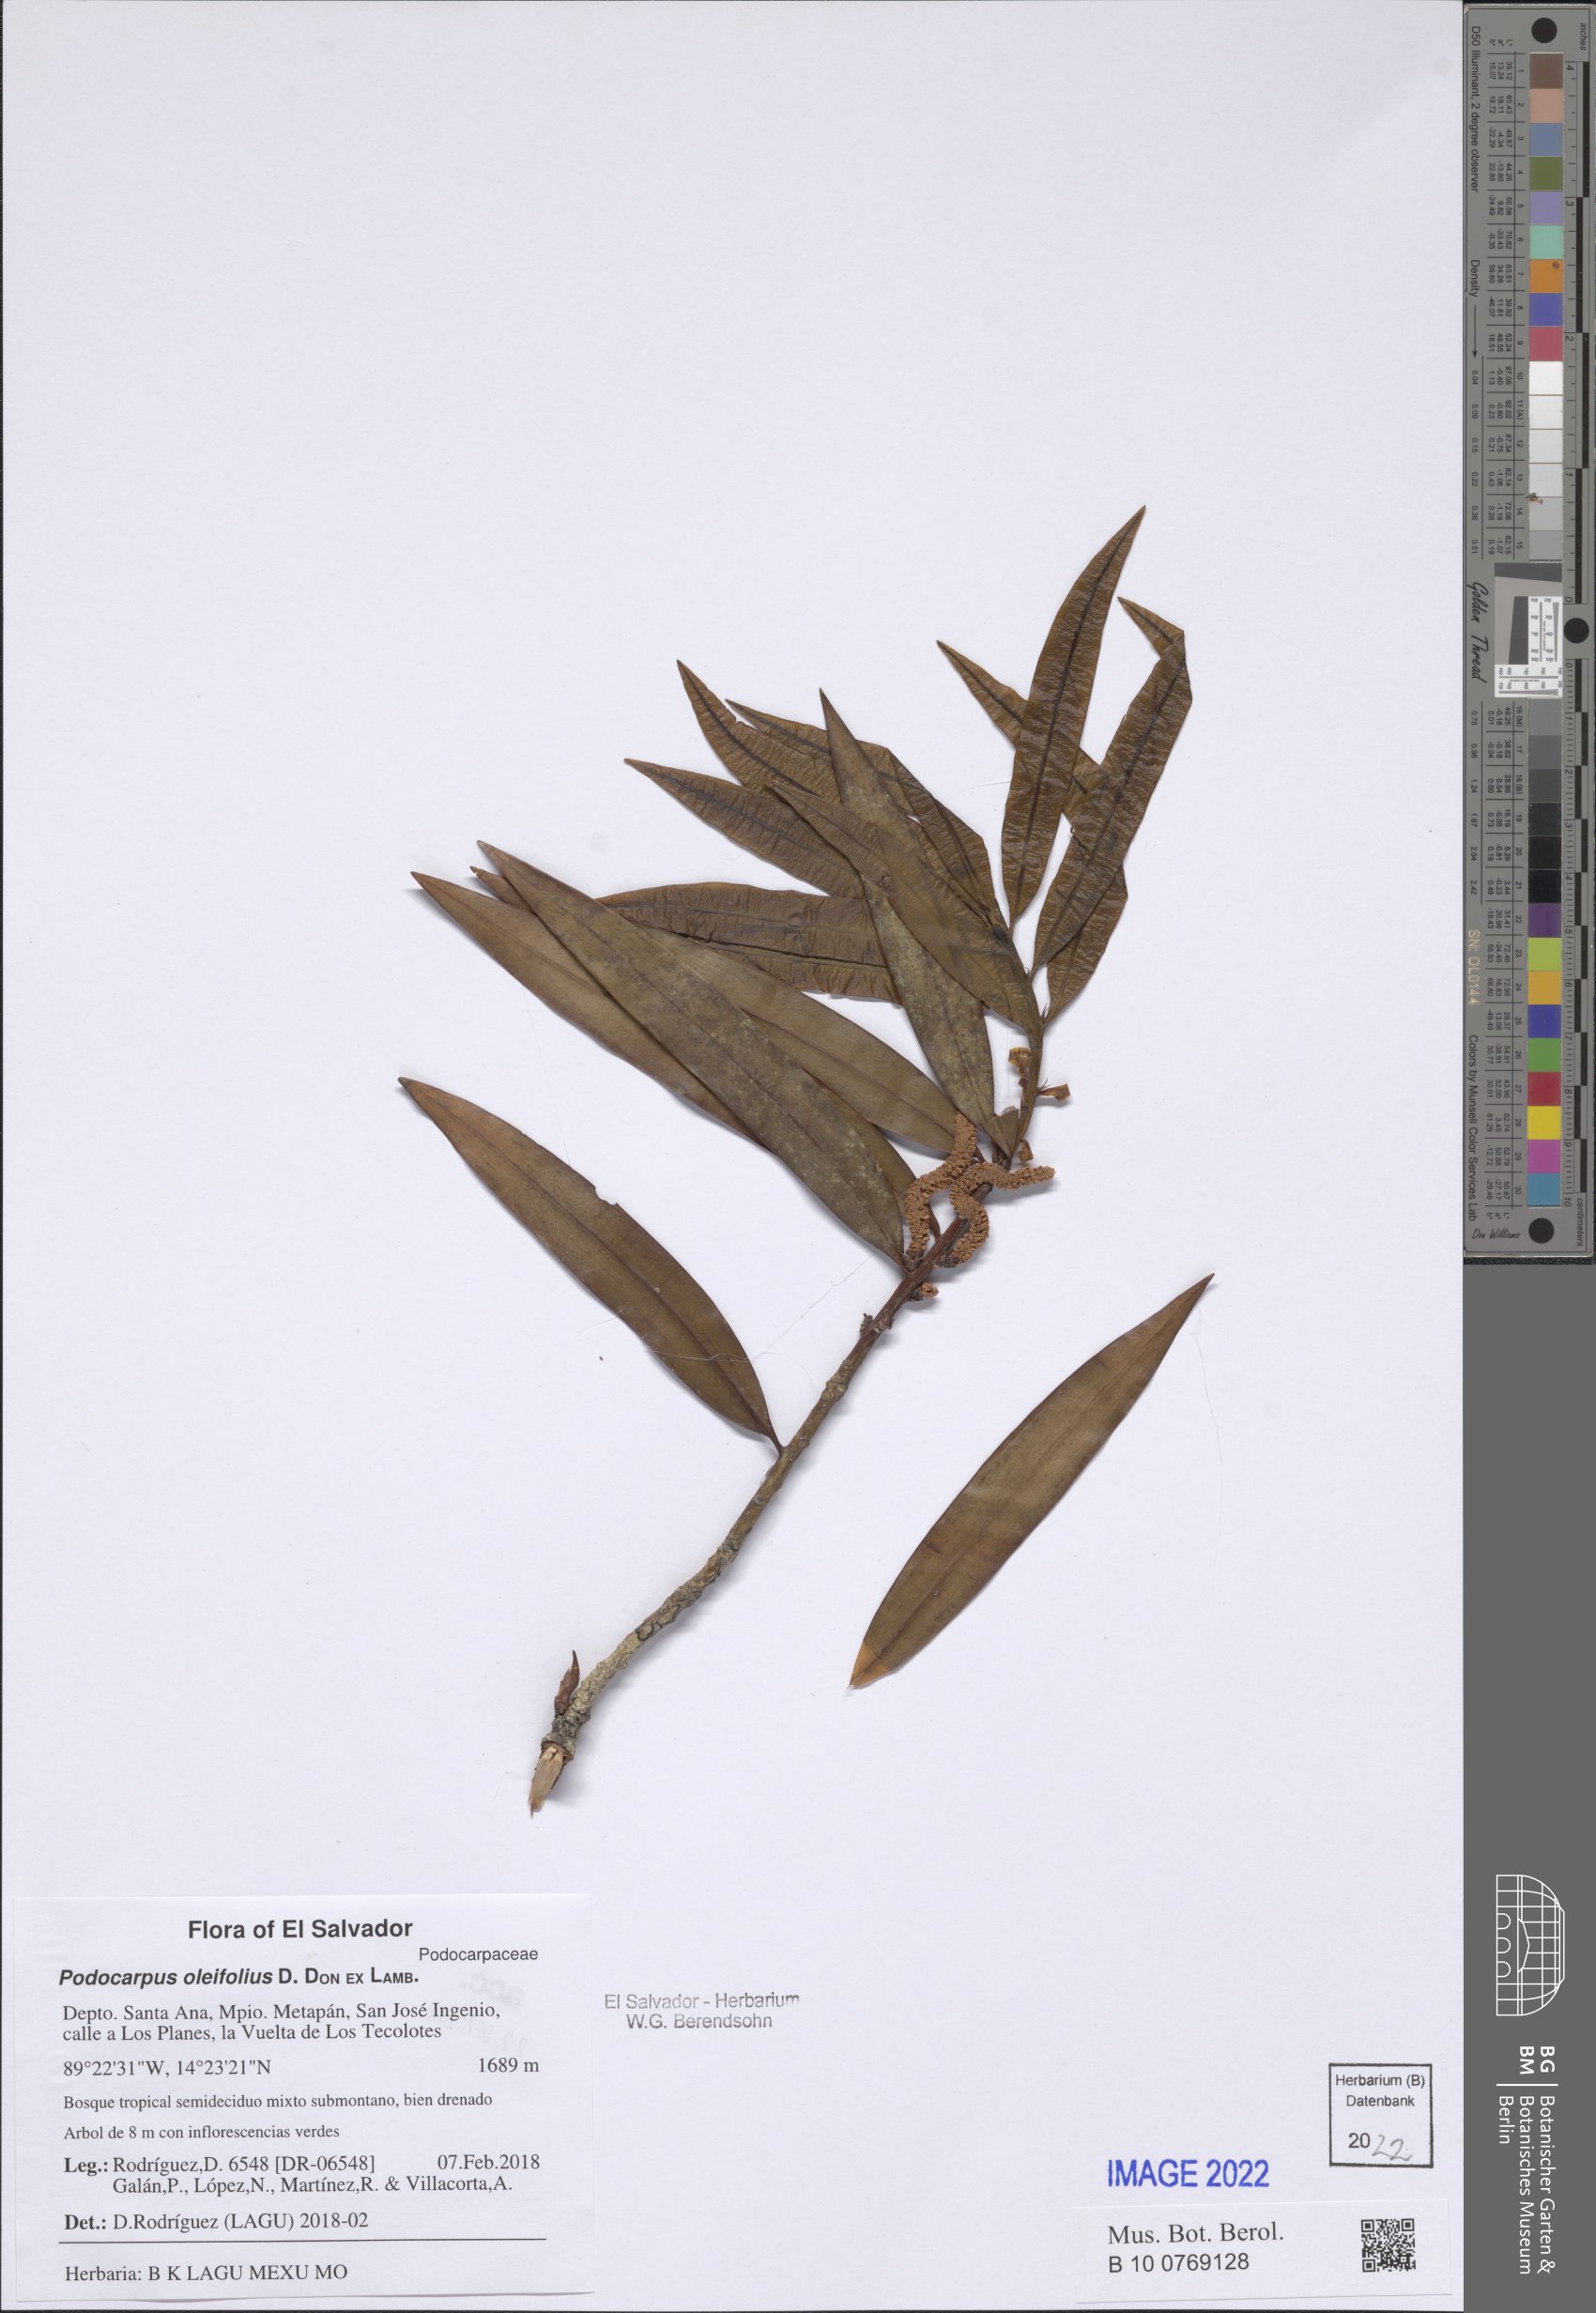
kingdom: Plantae
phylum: Tracheophyta
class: Pinopsida
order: Pinales
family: Podocarpaceae
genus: Podocarpus
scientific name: Podocarpus oleifolius
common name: Olive-leaf podoberry
